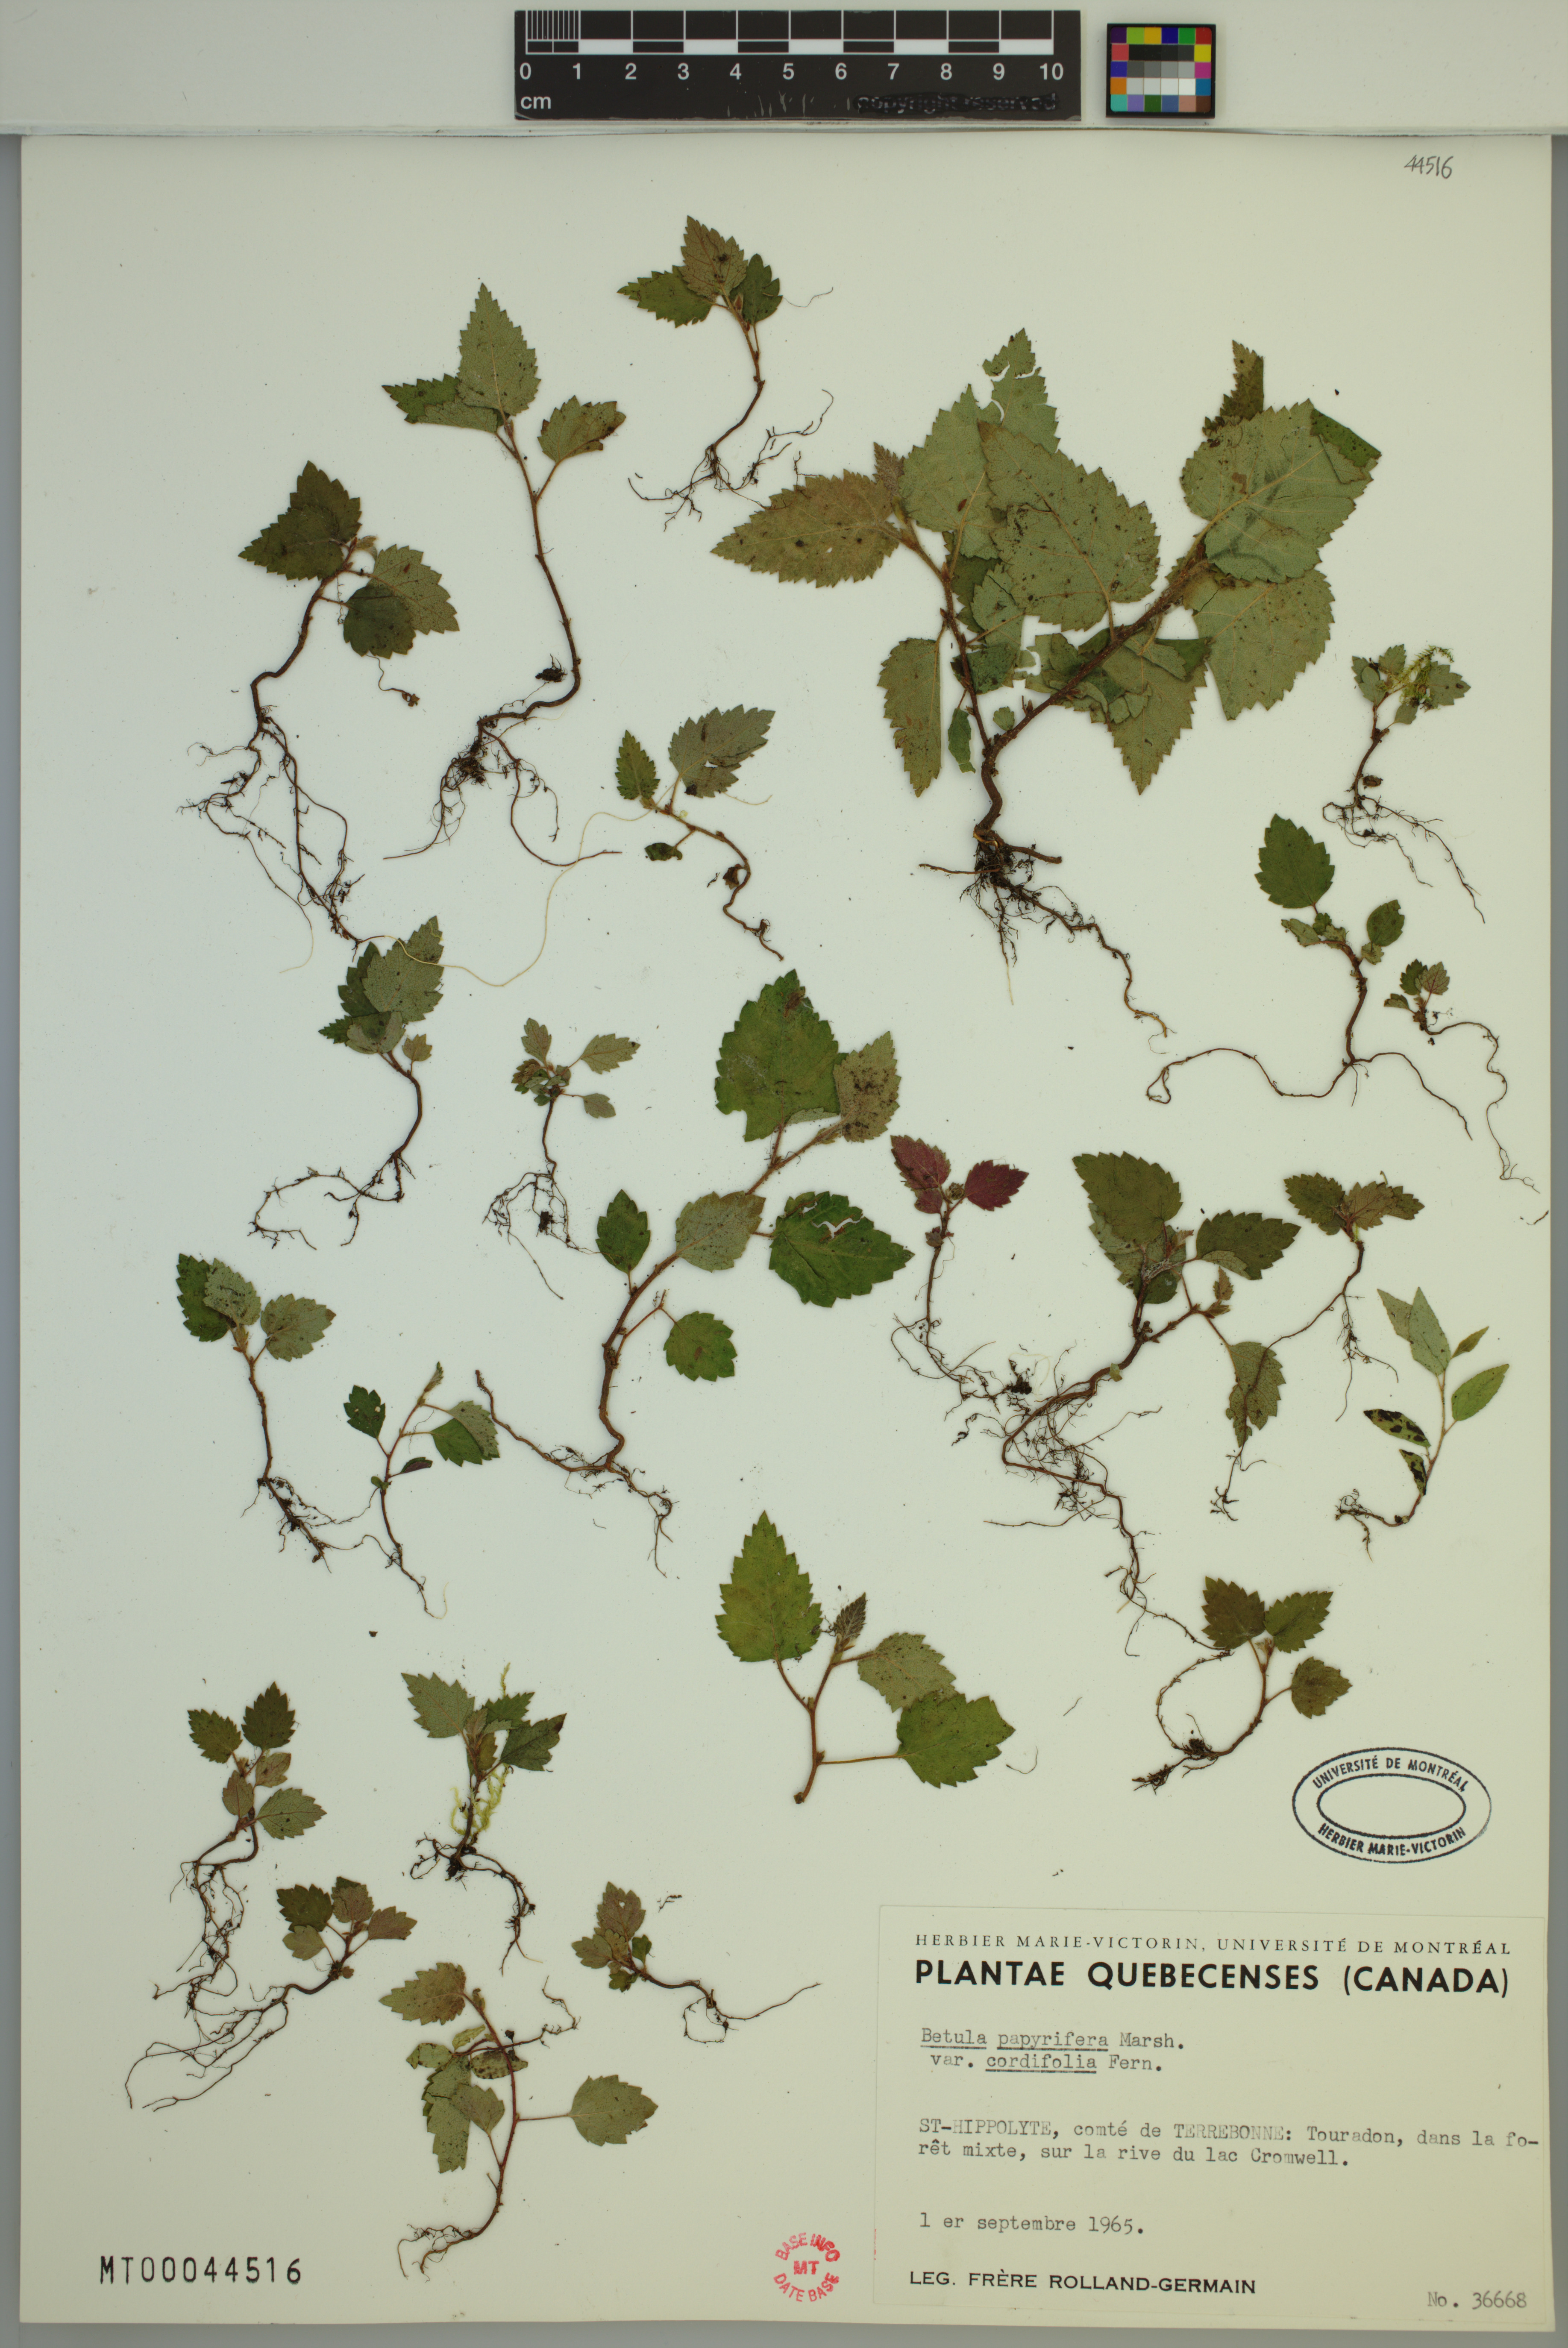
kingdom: Plantae
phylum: Tracheophyta
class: Magnoliopsida
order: Fagales
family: Betulaceae
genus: Betula
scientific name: Betula cordifolia
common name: Mountain white birch
